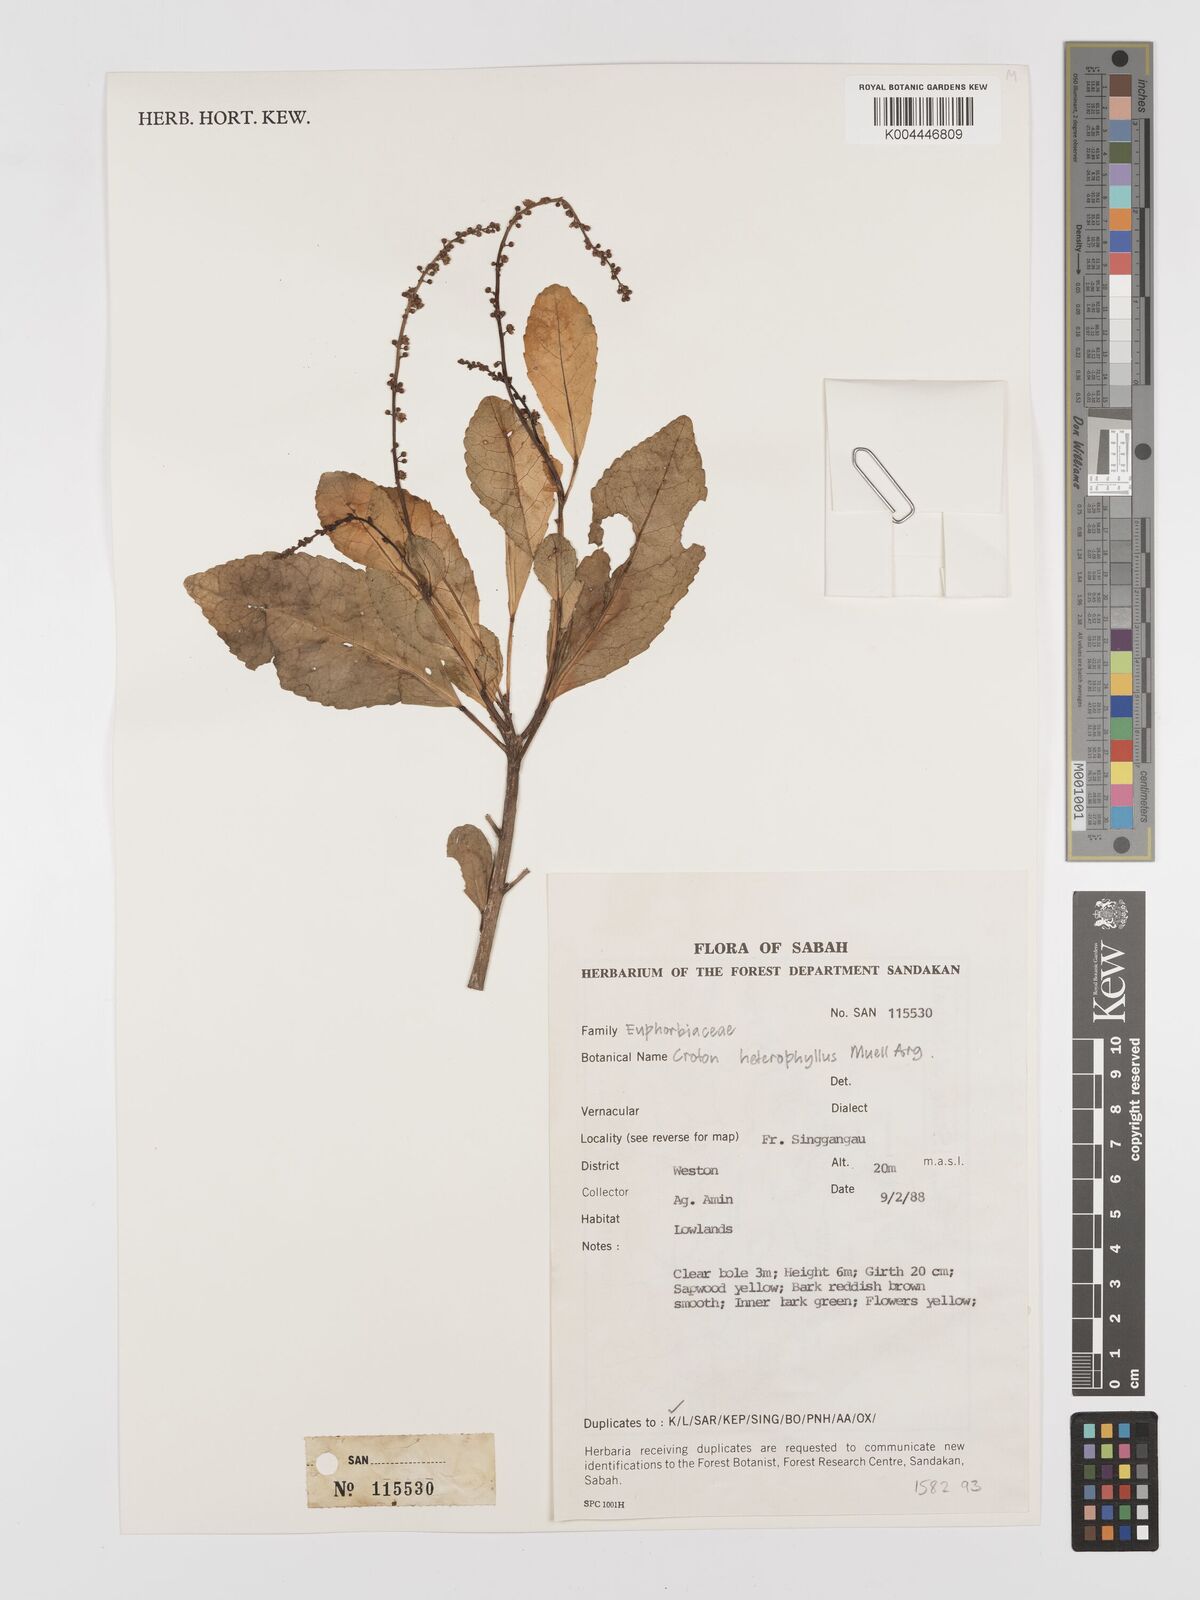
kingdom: Plantae
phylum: Tracheophyta
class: Magnoliopsida
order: Malpighiales
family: Euphorbiaceae
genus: Croton
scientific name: Croton heterocarpus
